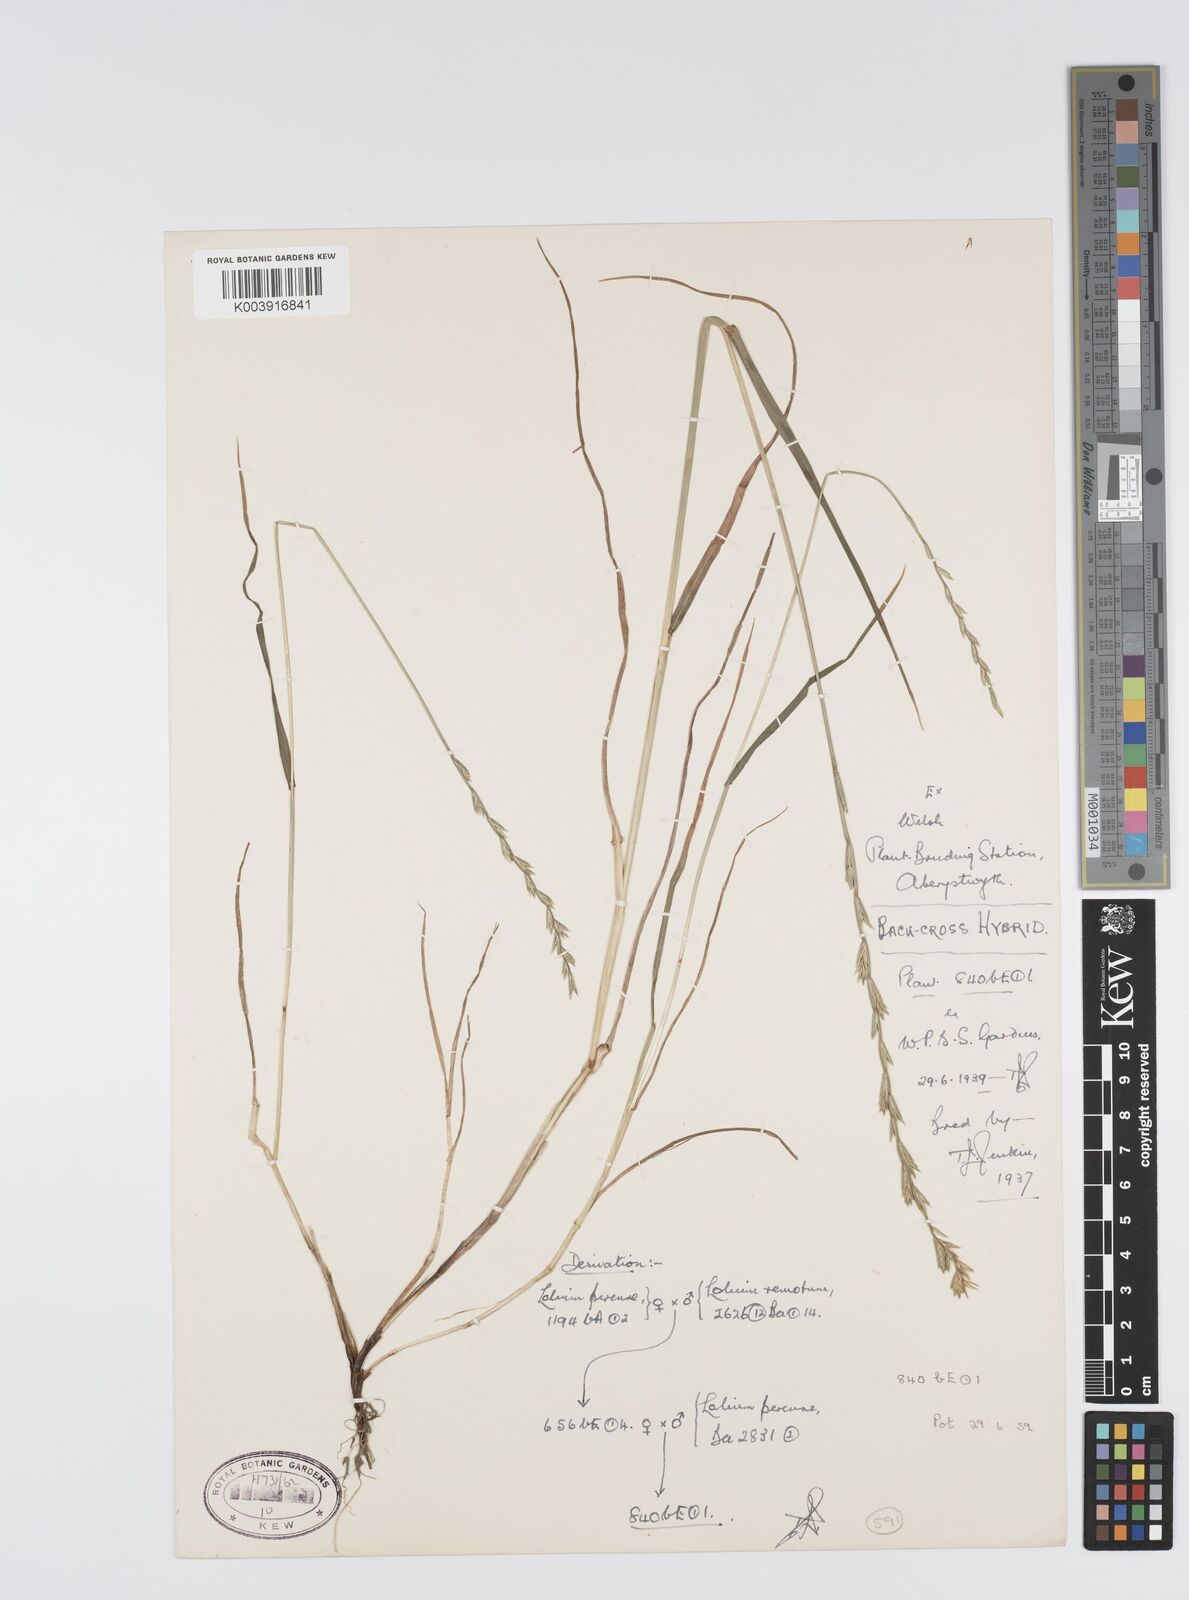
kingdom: Plantae
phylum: Tracheophyta
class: Liliopsida
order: Poales
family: Poaceae
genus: Lolium
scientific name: Lolium perenne
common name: Perennial ryegrass
